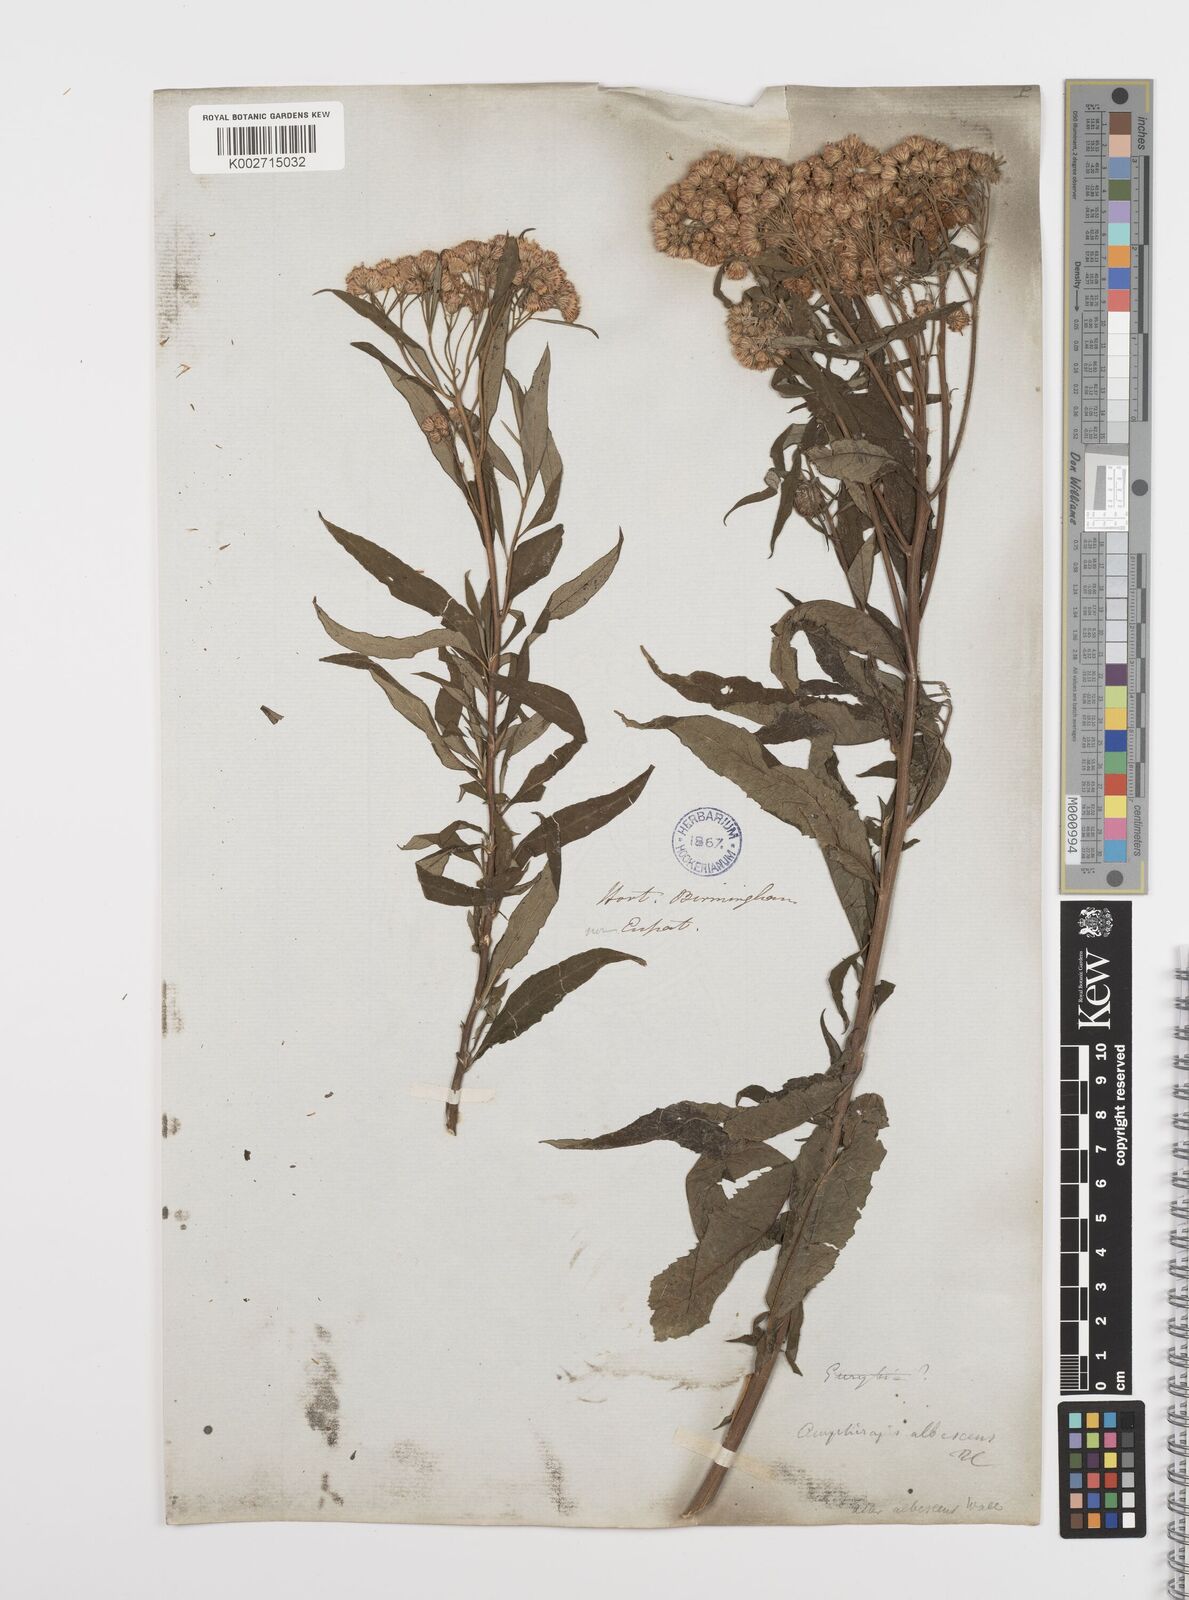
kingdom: Plantae
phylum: Tracheophyta
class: Magnoliopsida
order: Asterales
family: Asteraceae
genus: Sinosidus
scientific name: Sinosidus albescens
